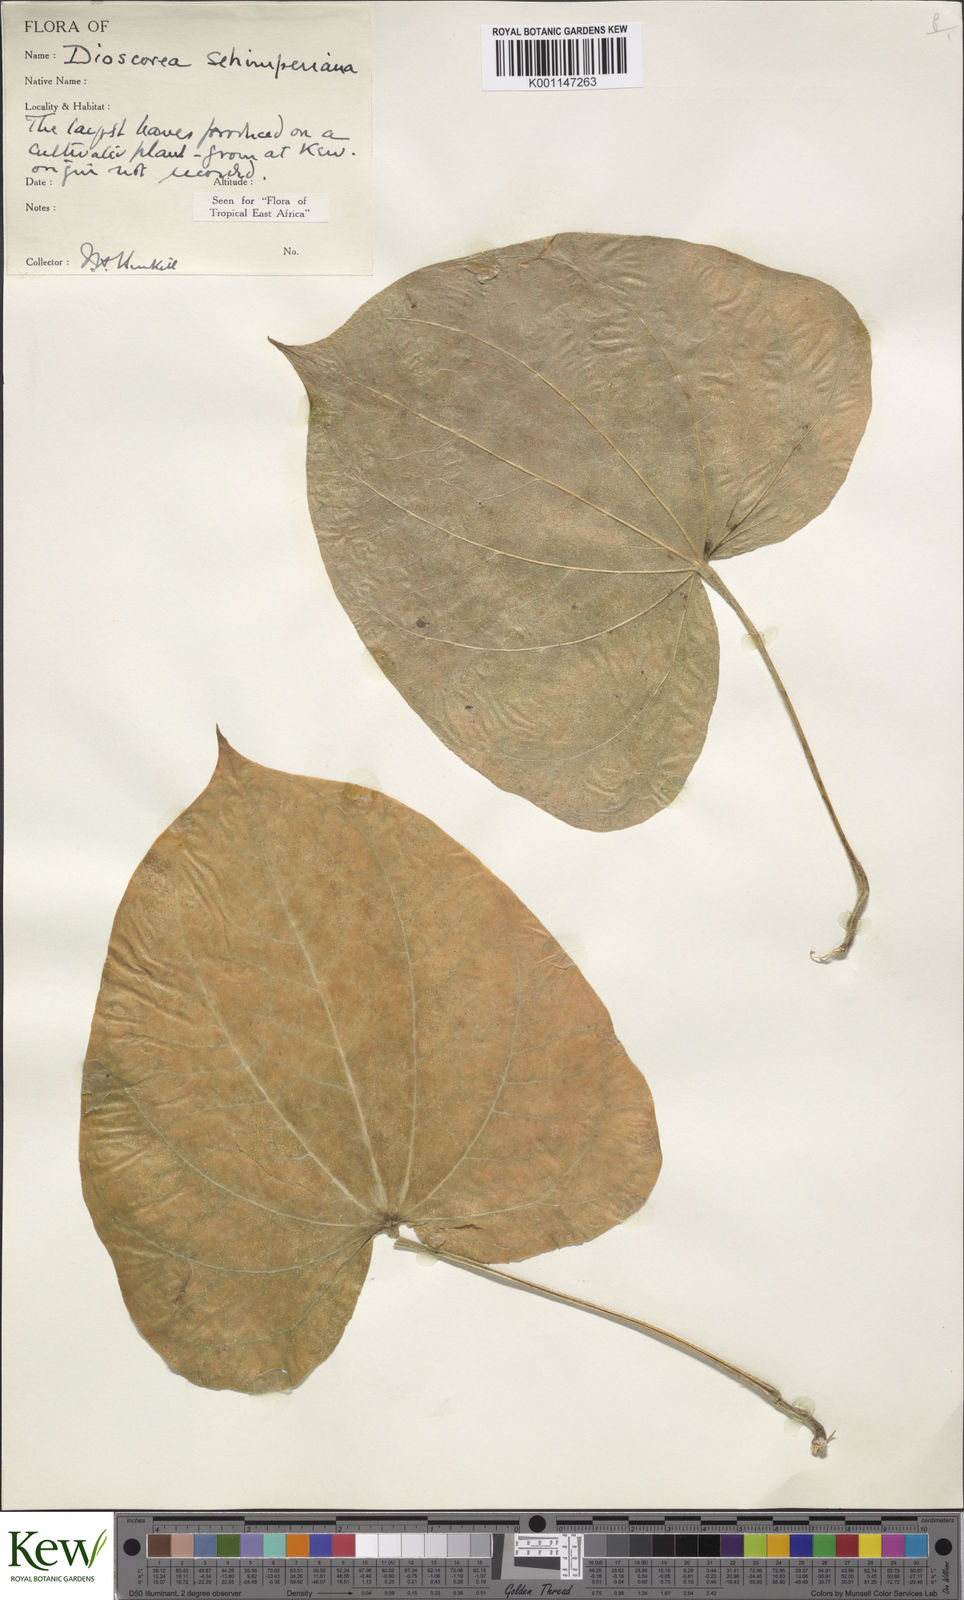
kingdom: Plantae
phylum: Tracheophyta
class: Liliopsida
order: Dioscoreales
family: Dioscoreaceae
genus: Dioscorea
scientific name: Dioscorea schimperiana
